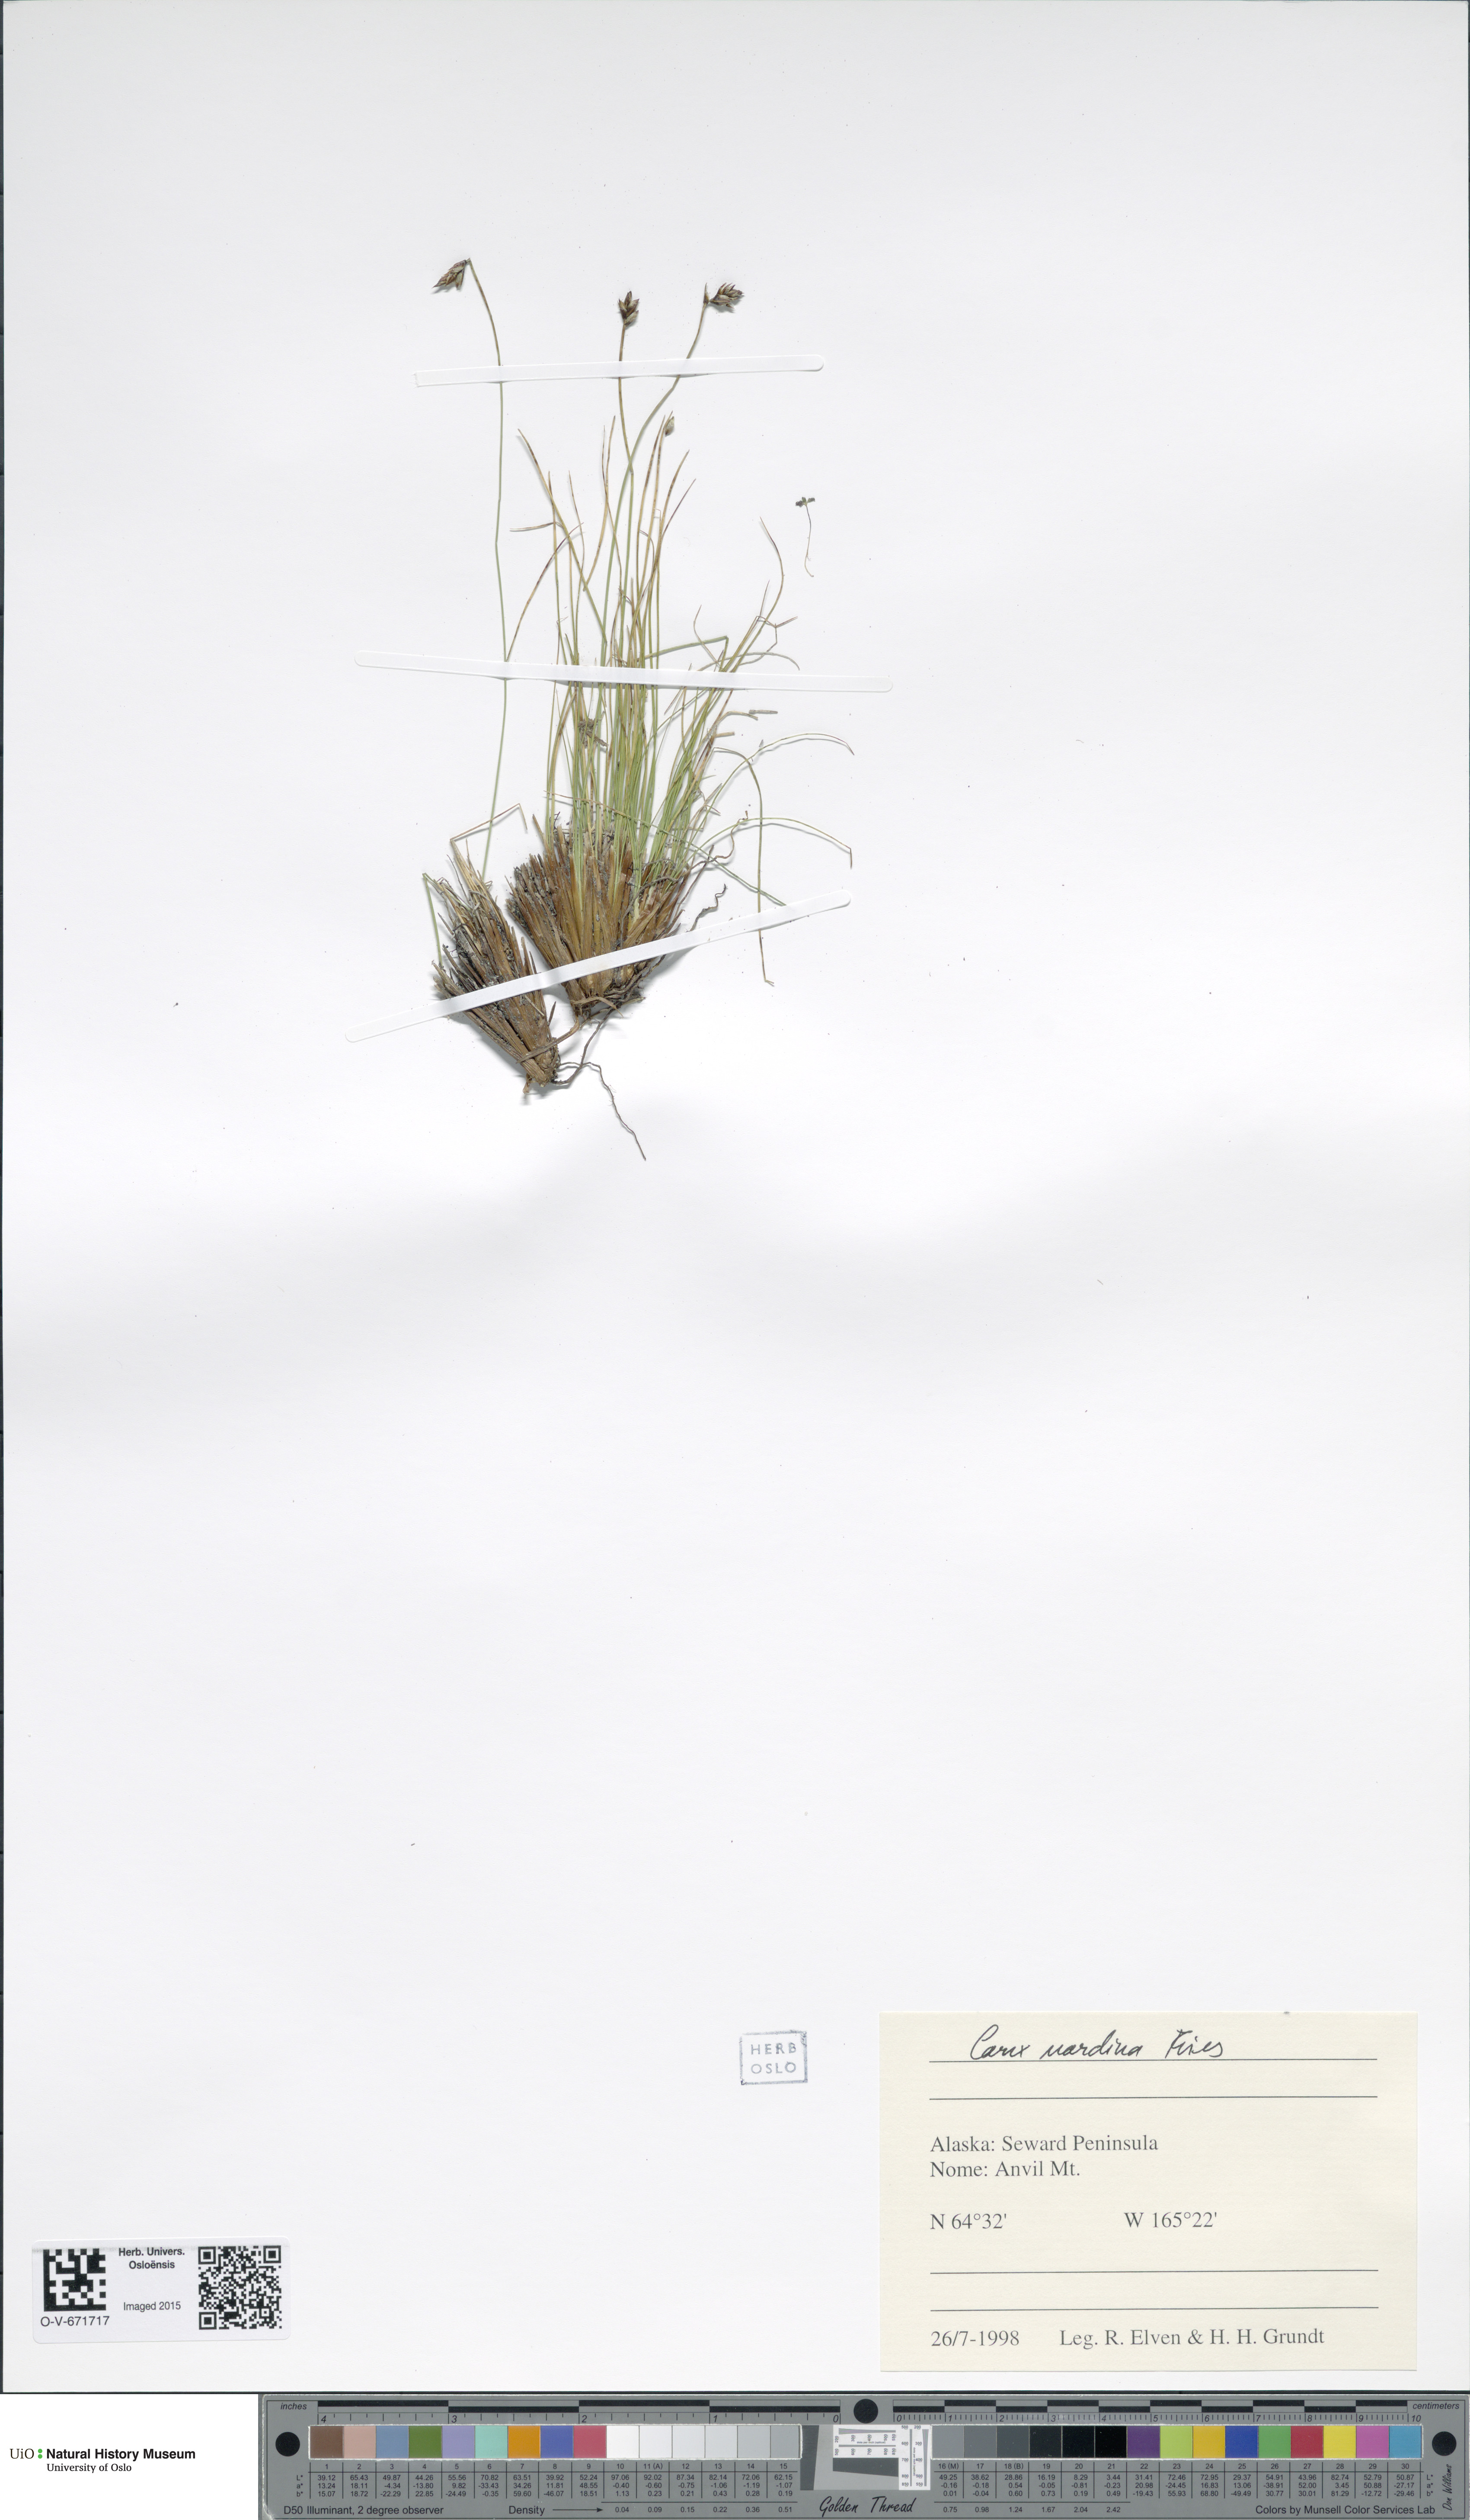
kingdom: Plantae
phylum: Tracheophyta
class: Liliopsida
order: Poales
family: Cyperaceae
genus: Carex
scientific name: Carex nardina
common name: Nard sedge
